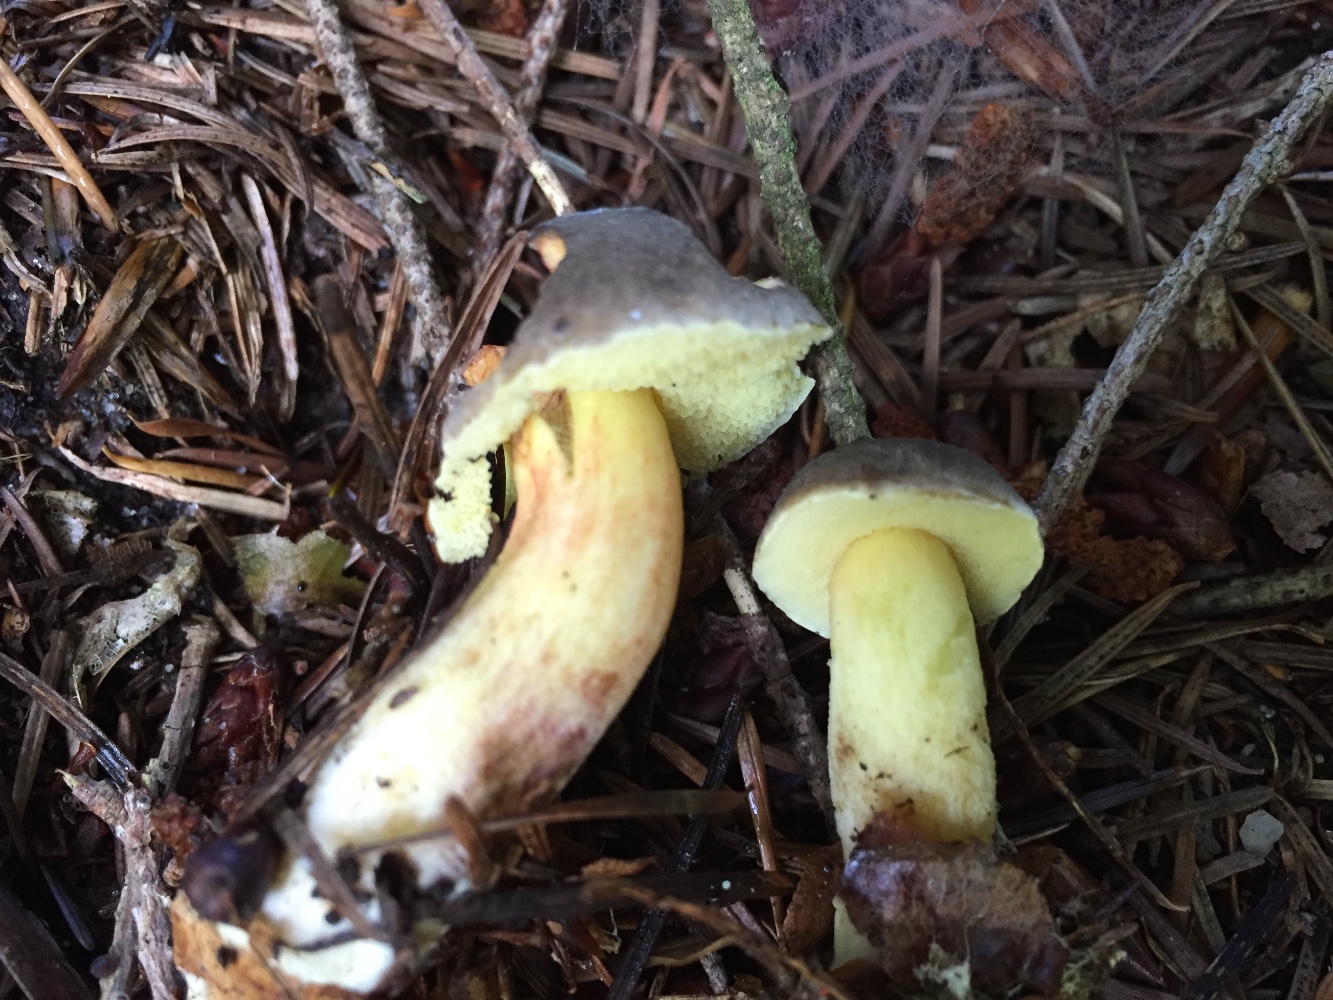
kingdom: Fungi
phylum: Basidiomycota
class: Agaricomycetes
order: Boletales
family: Boletaceae
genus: Xerocomellus
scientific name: Xerocomellus pruinatus
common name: dugget rørhat
